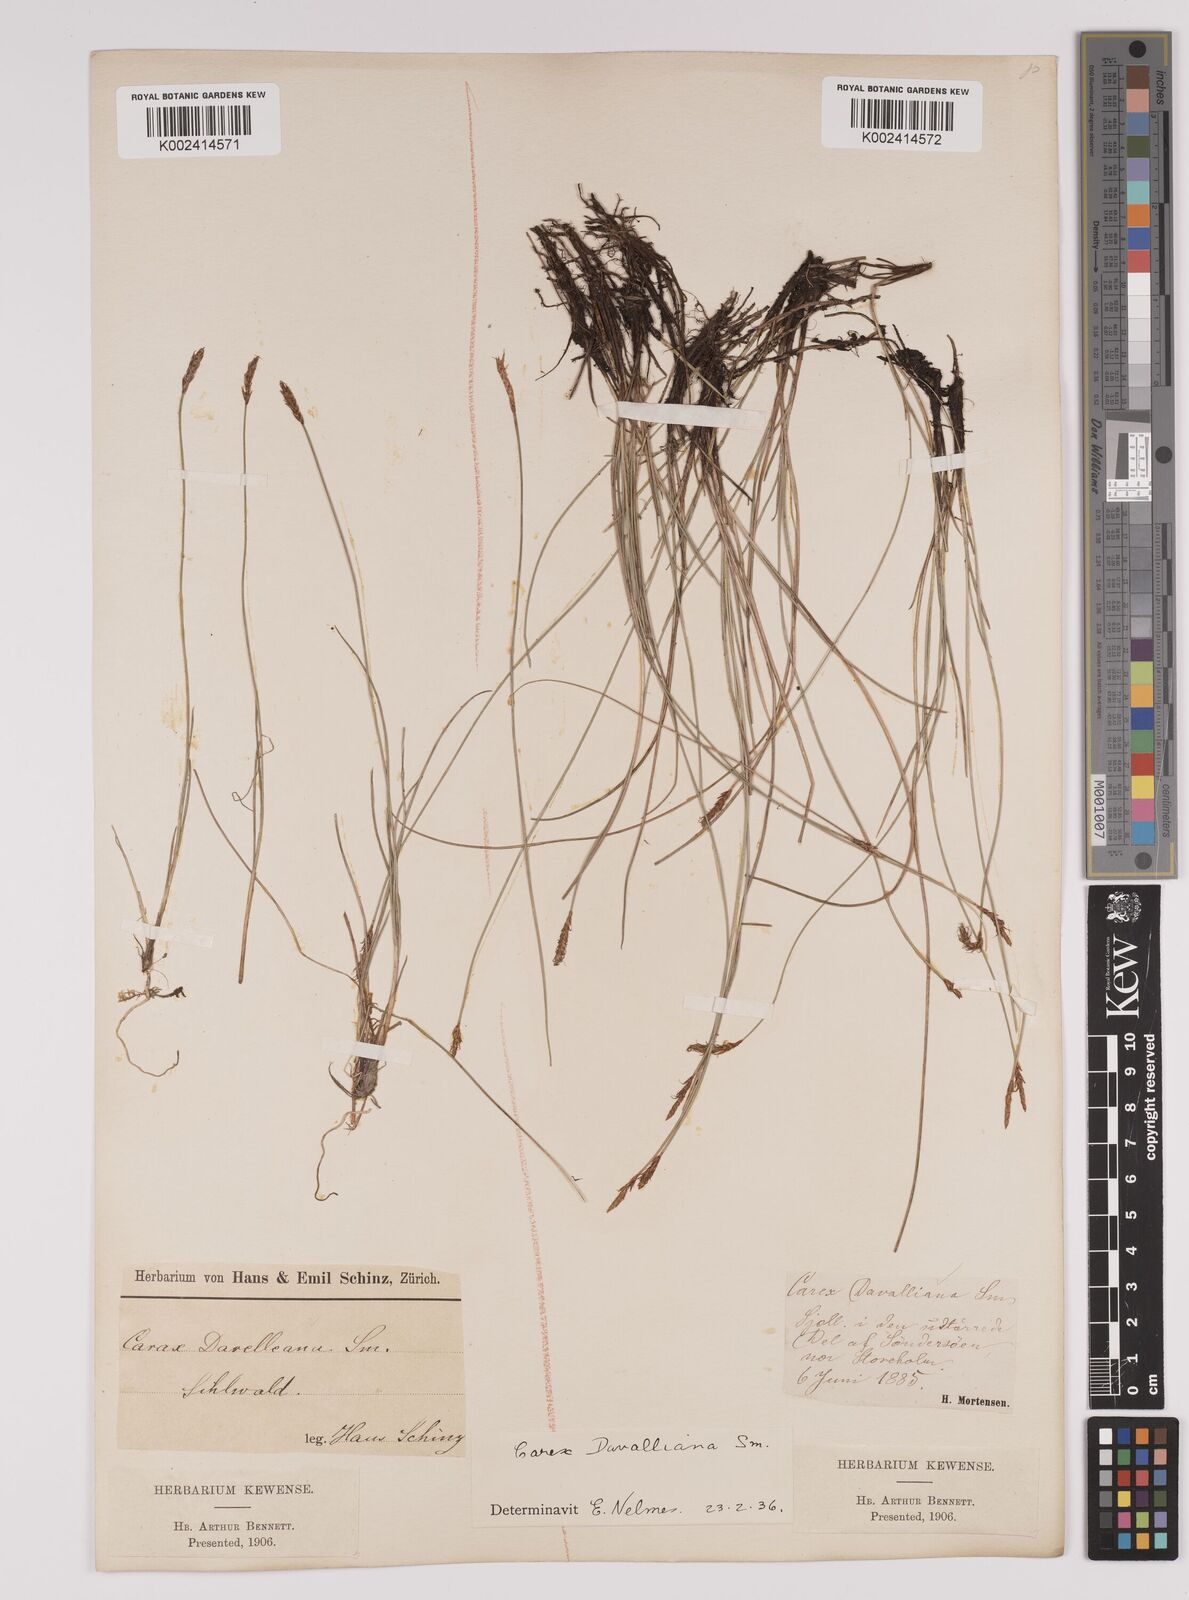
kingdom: Plantae
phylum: Tracheophyta
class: Liliopsida
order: Poales
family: Cyperaceae
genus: Carex
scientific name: Carex davalliana
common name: Davall's sedge
